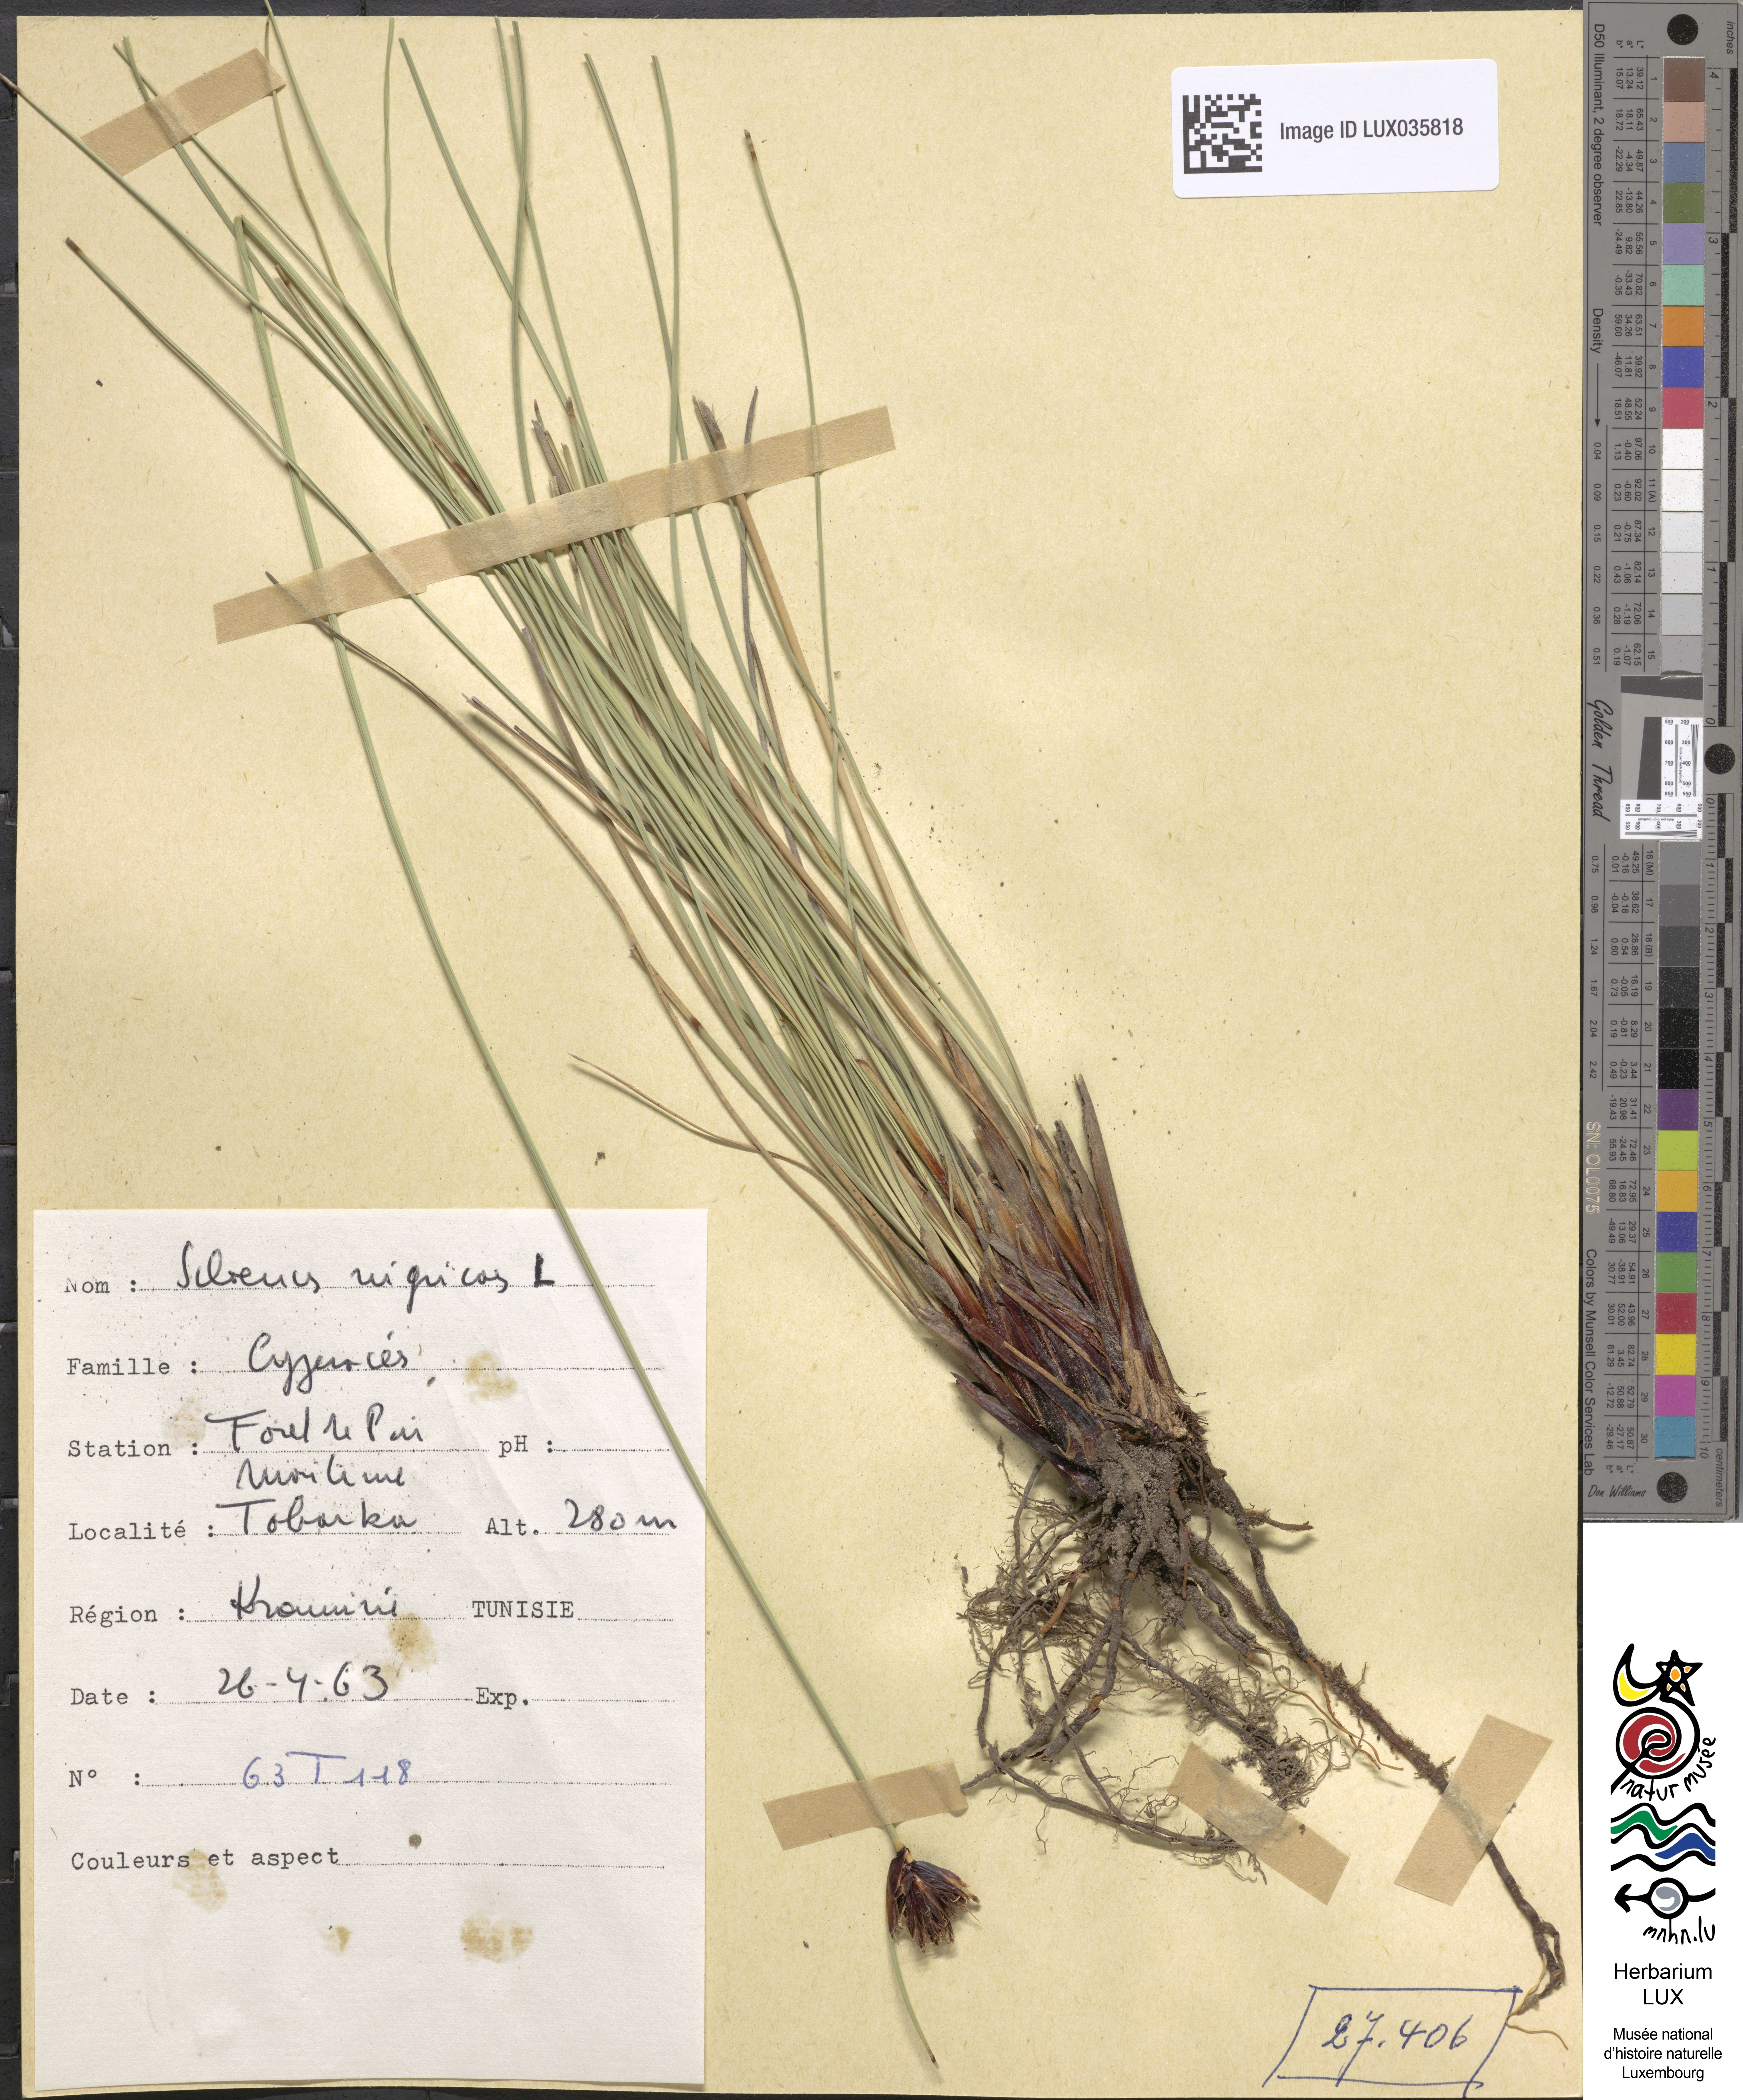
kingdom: Plantae
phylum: Tracheophyta
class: Liliopsida
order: Poales
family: Cyperaceae
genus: Schoenus
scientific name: Schoenus nigricans
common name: Black bog-rush
